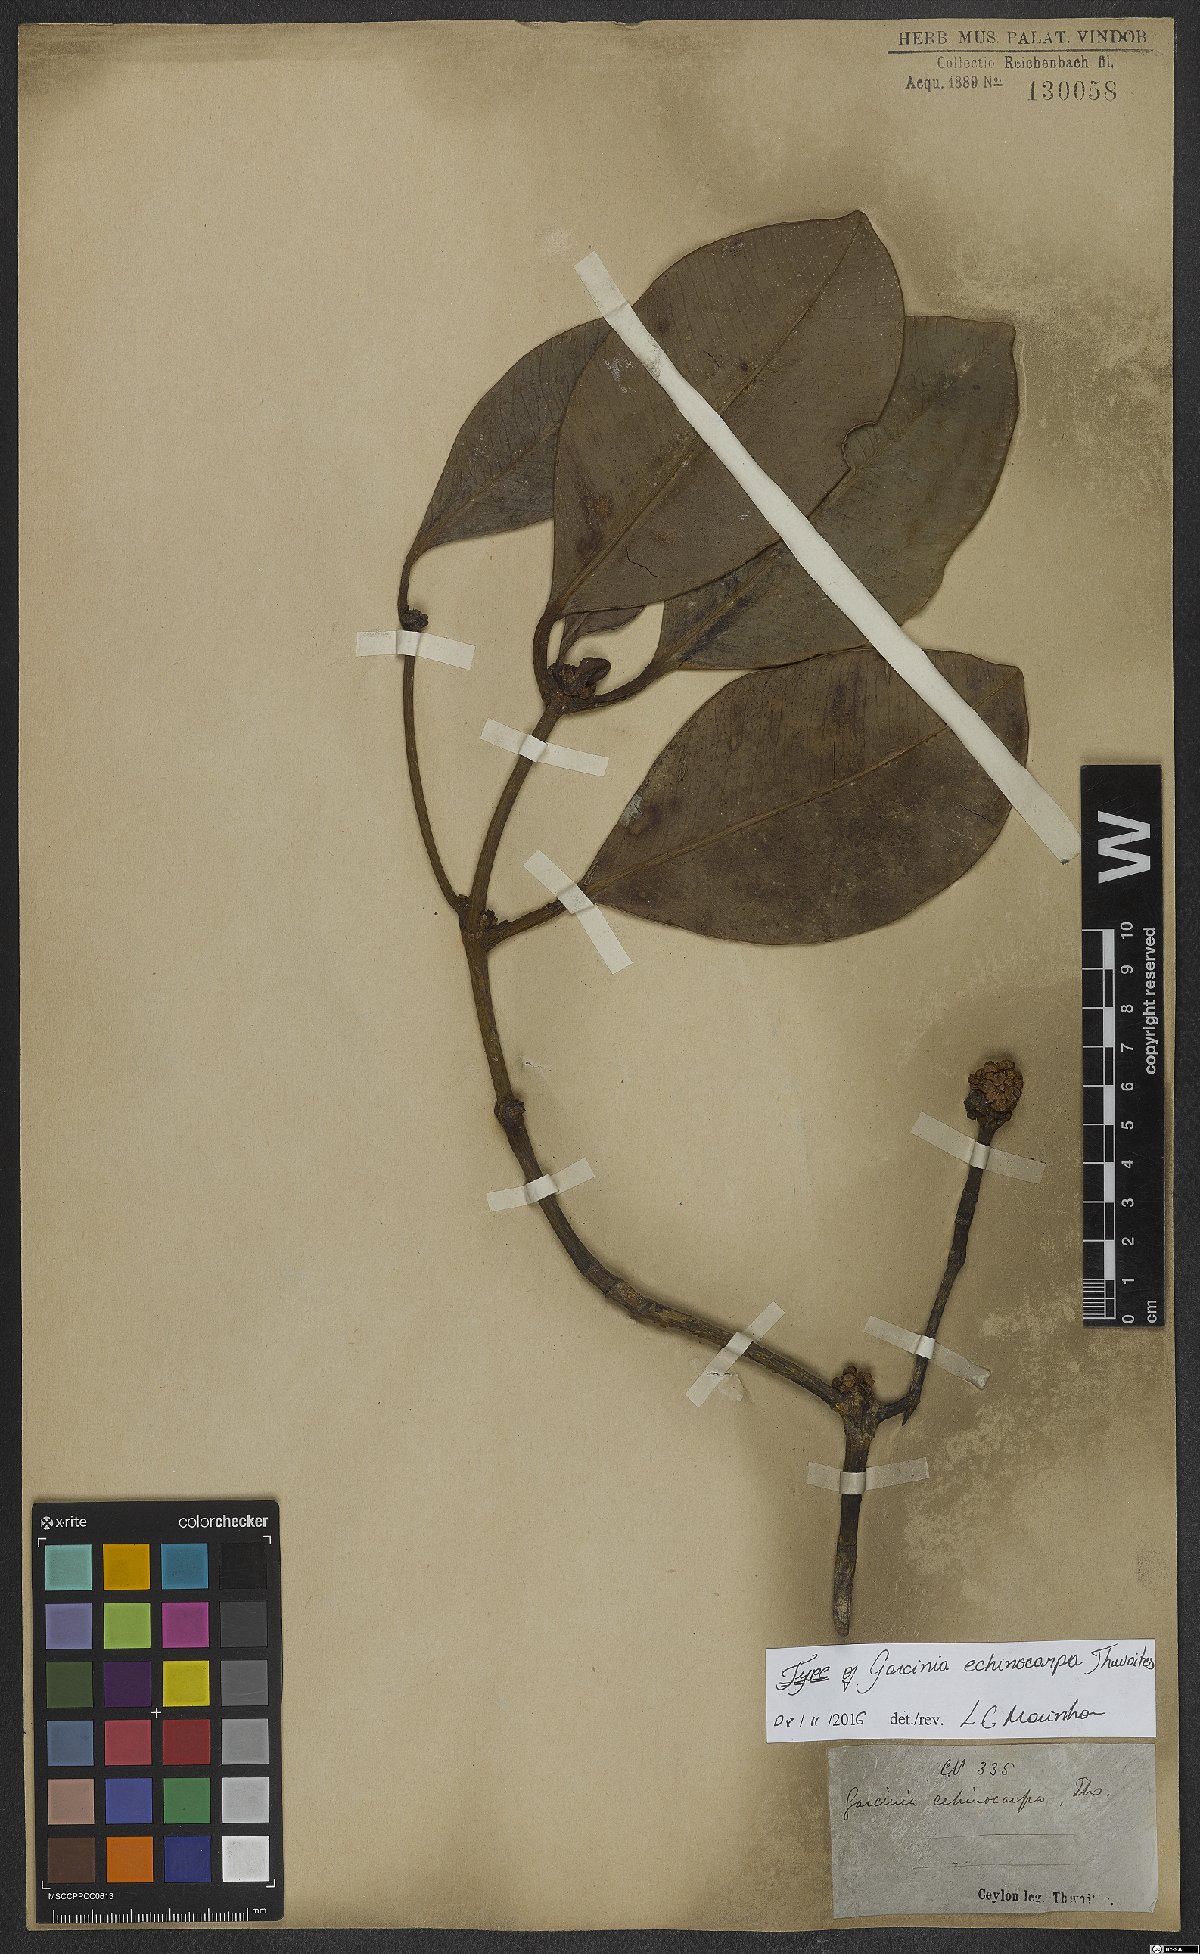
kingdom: Plantae
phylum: Tracheophyta
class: Magnoliopsida
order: Malpighiales
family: Clusiaceae
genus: Garcinia
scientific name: Garcinia echinocarpa
